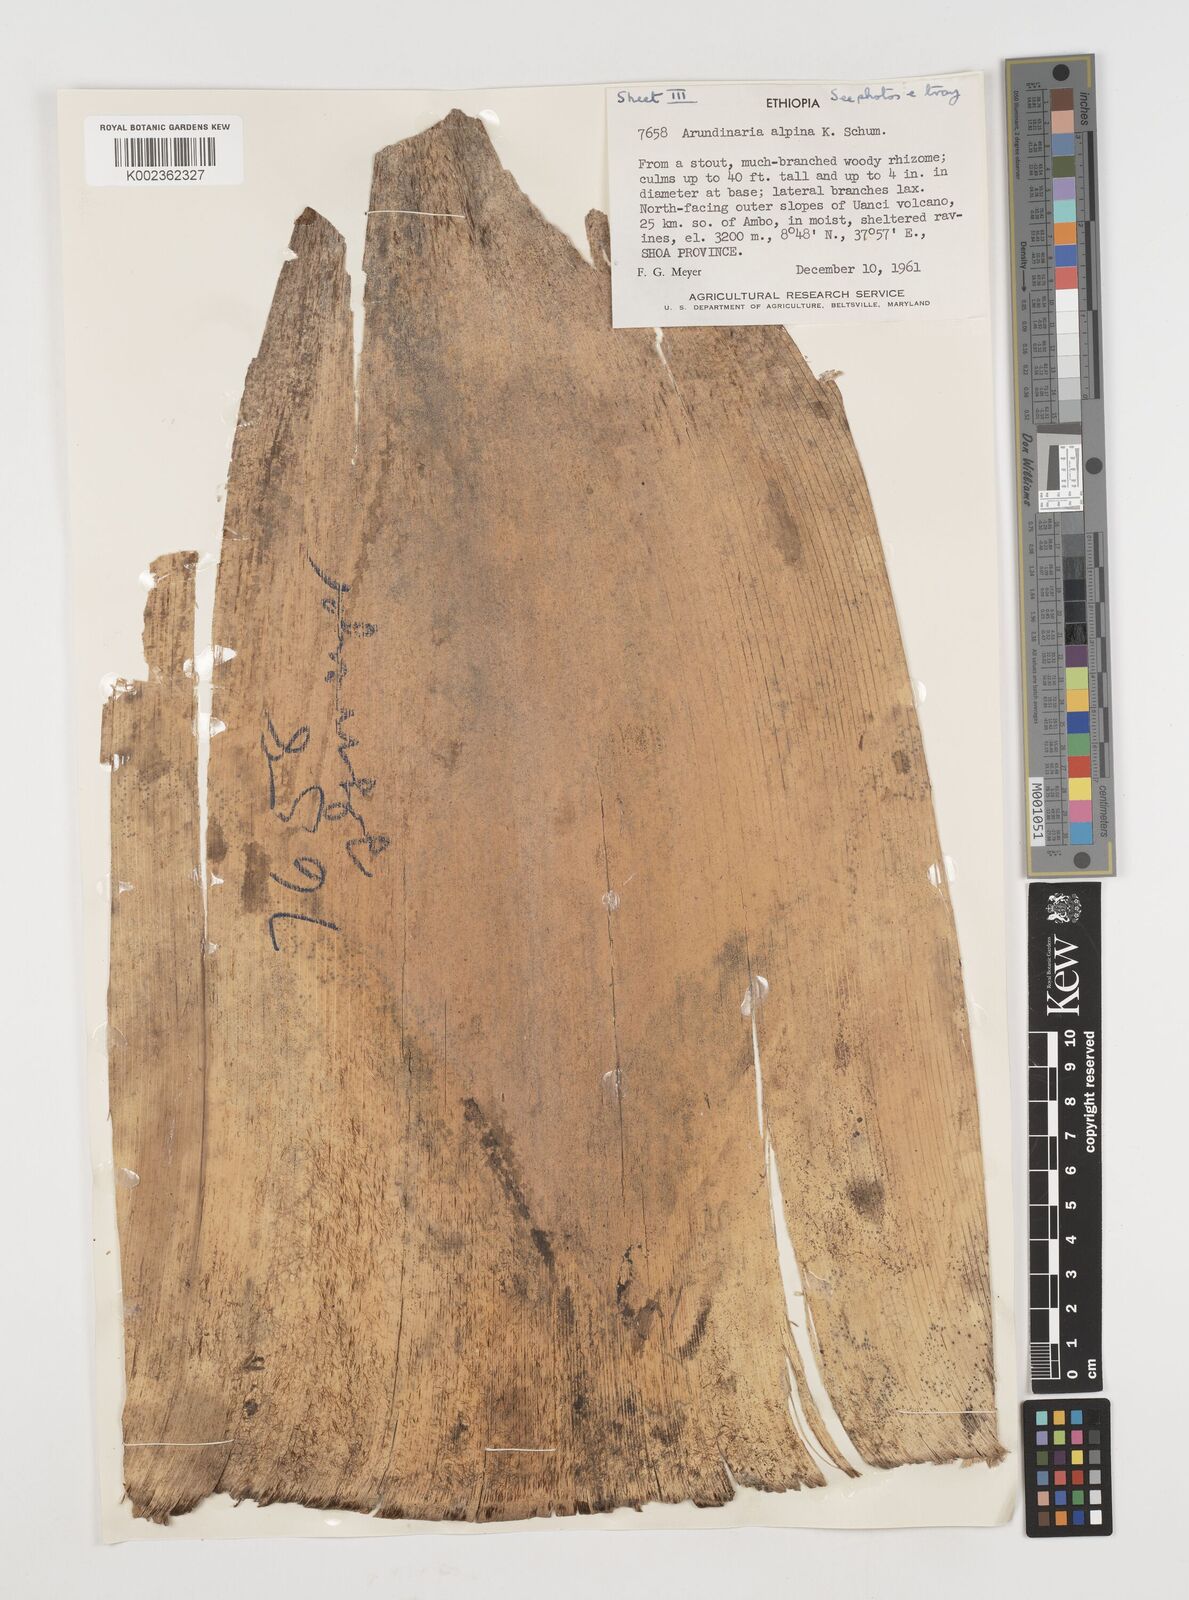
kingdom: Plantae
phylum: Tracheophyta
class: Liliopsida
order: Poales
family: Poaceae
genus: Oldeania
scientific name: Oldeania alpina
